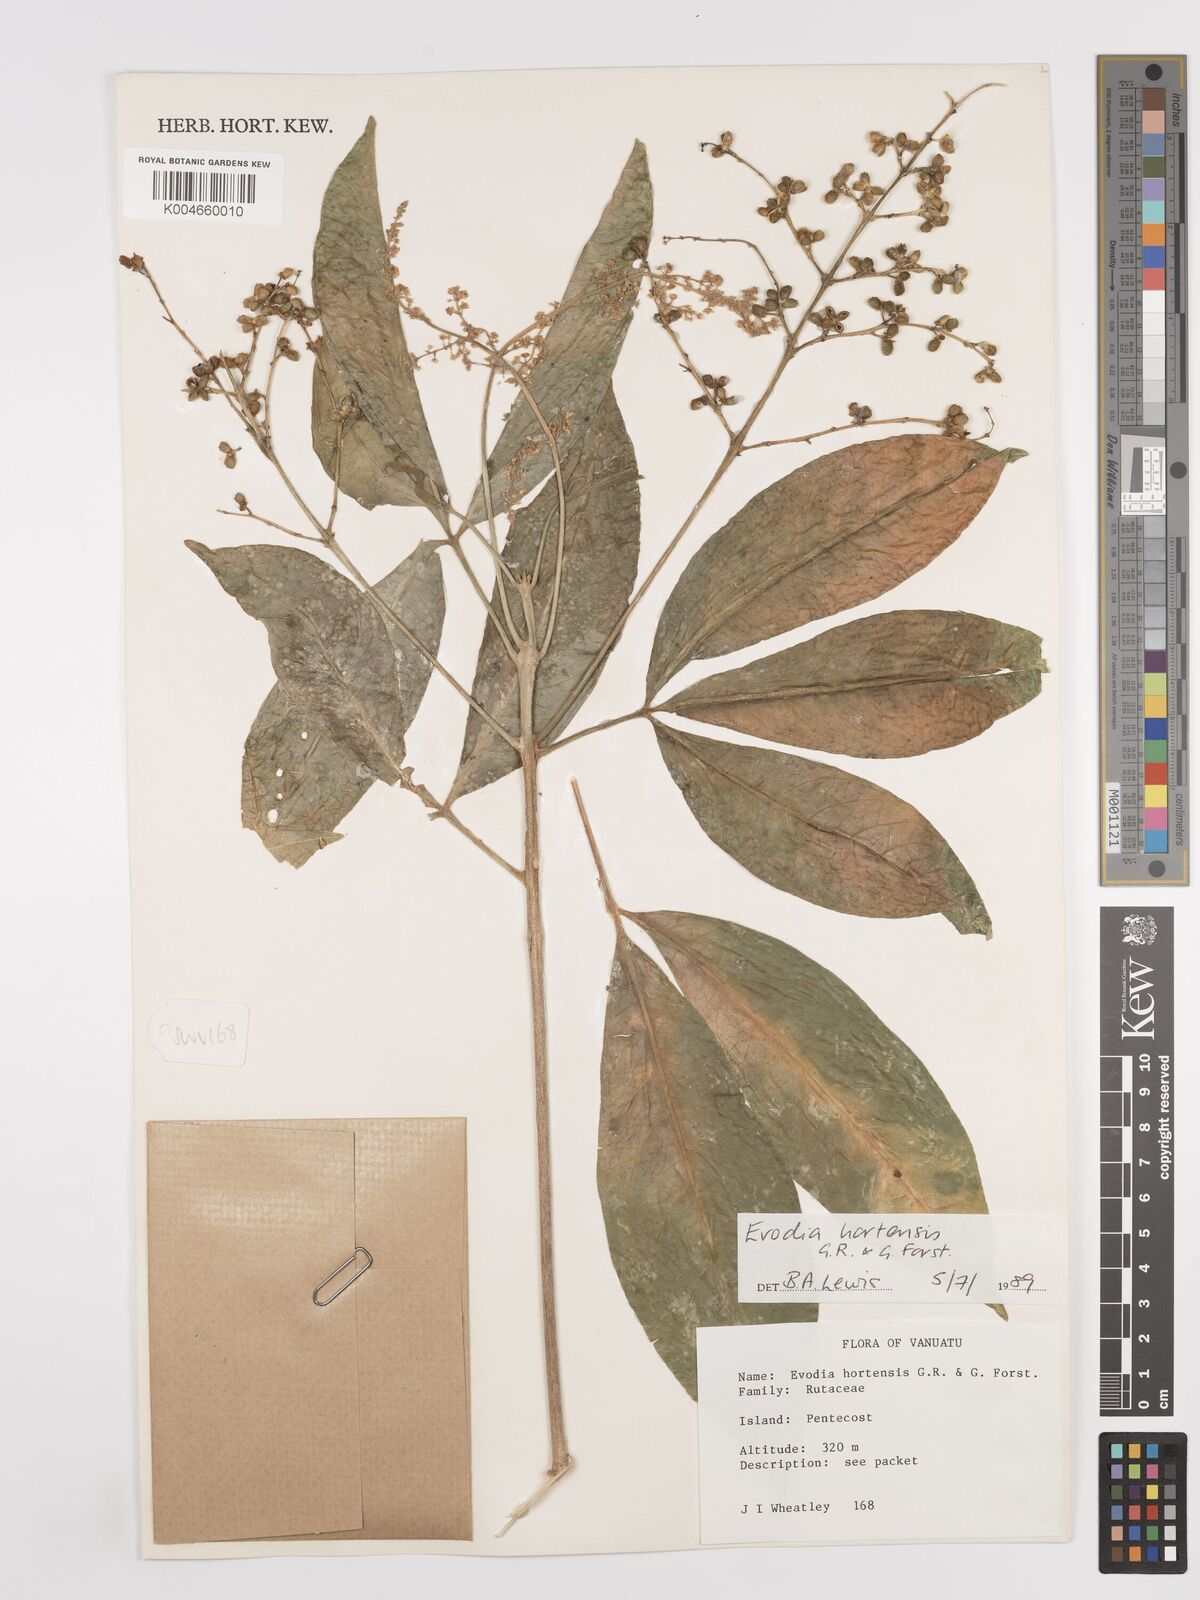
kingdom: Plantae
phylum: Tracheophyta
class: Magnoliopsida
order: Sapindales
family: Rutaceae
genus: Euodia
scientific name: Euodia hortensis
